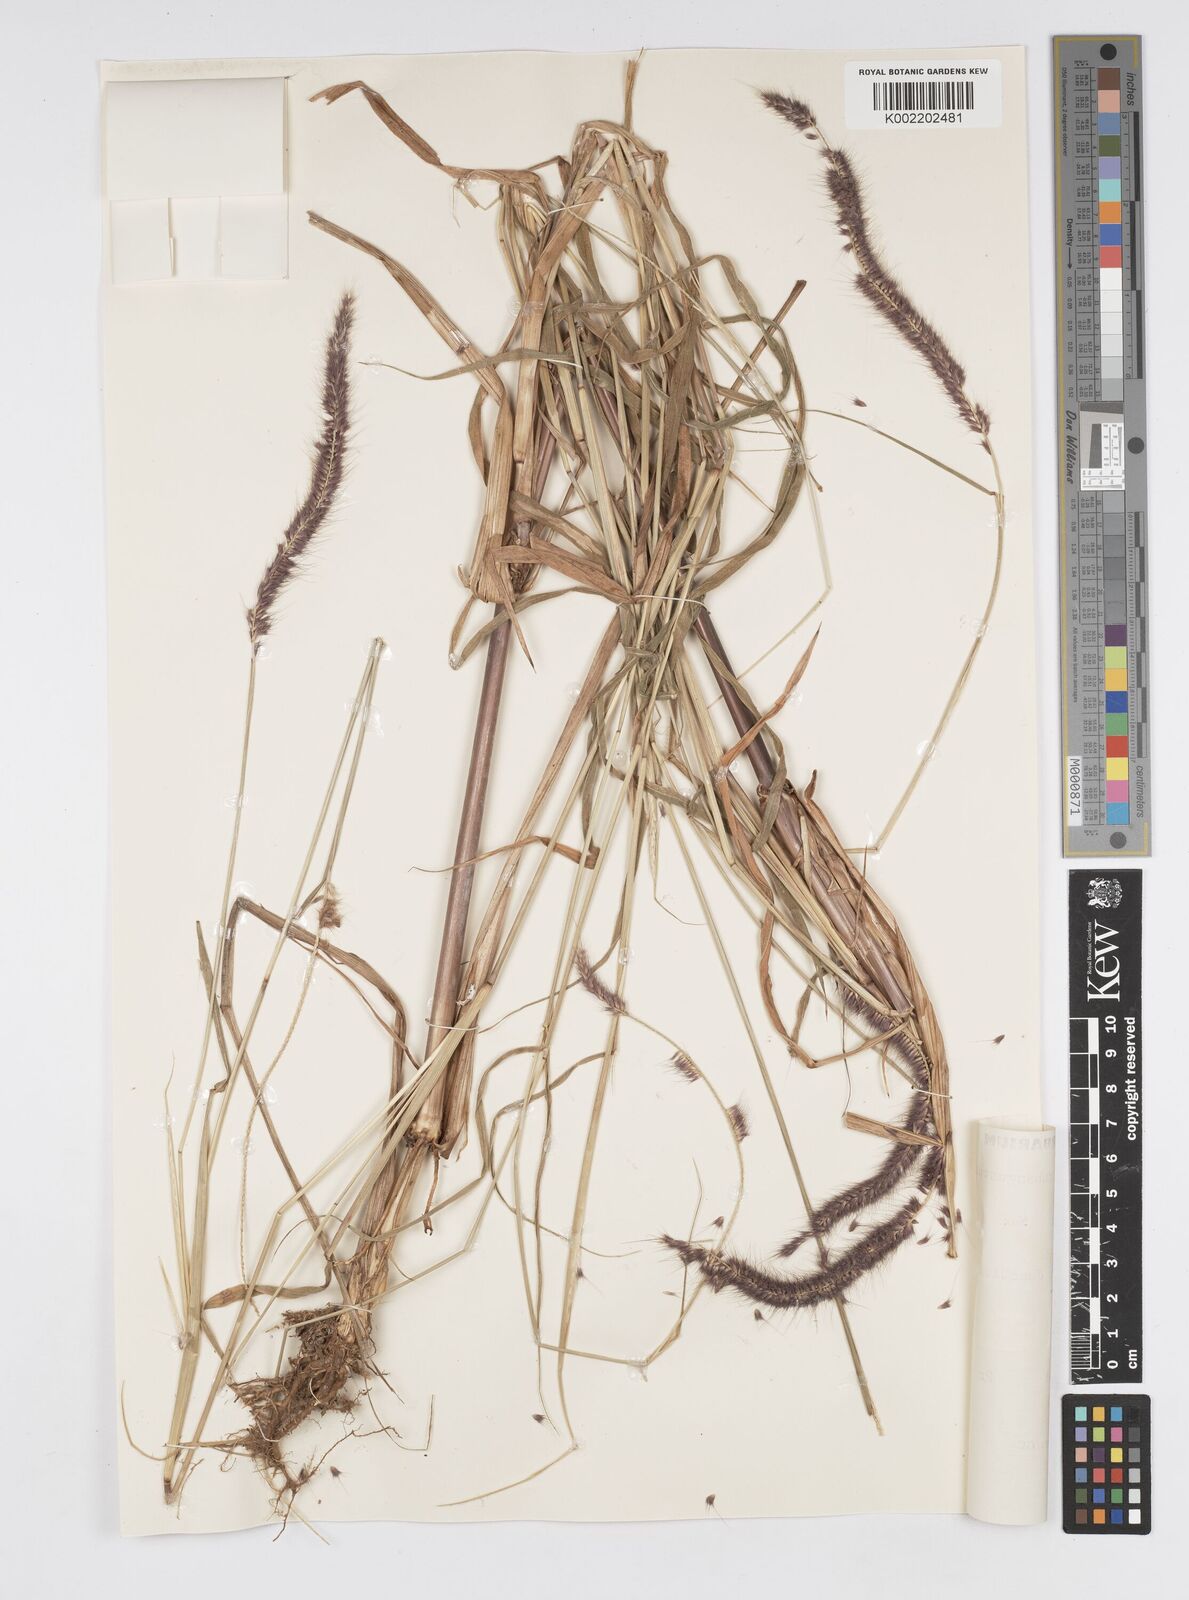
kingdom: Plantae
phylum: Tracheophyta
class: Liliopsida
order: Poales
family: Poaceae
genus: Setaria
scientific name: Setaria parviflora
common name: Knotroot bristle-grass
